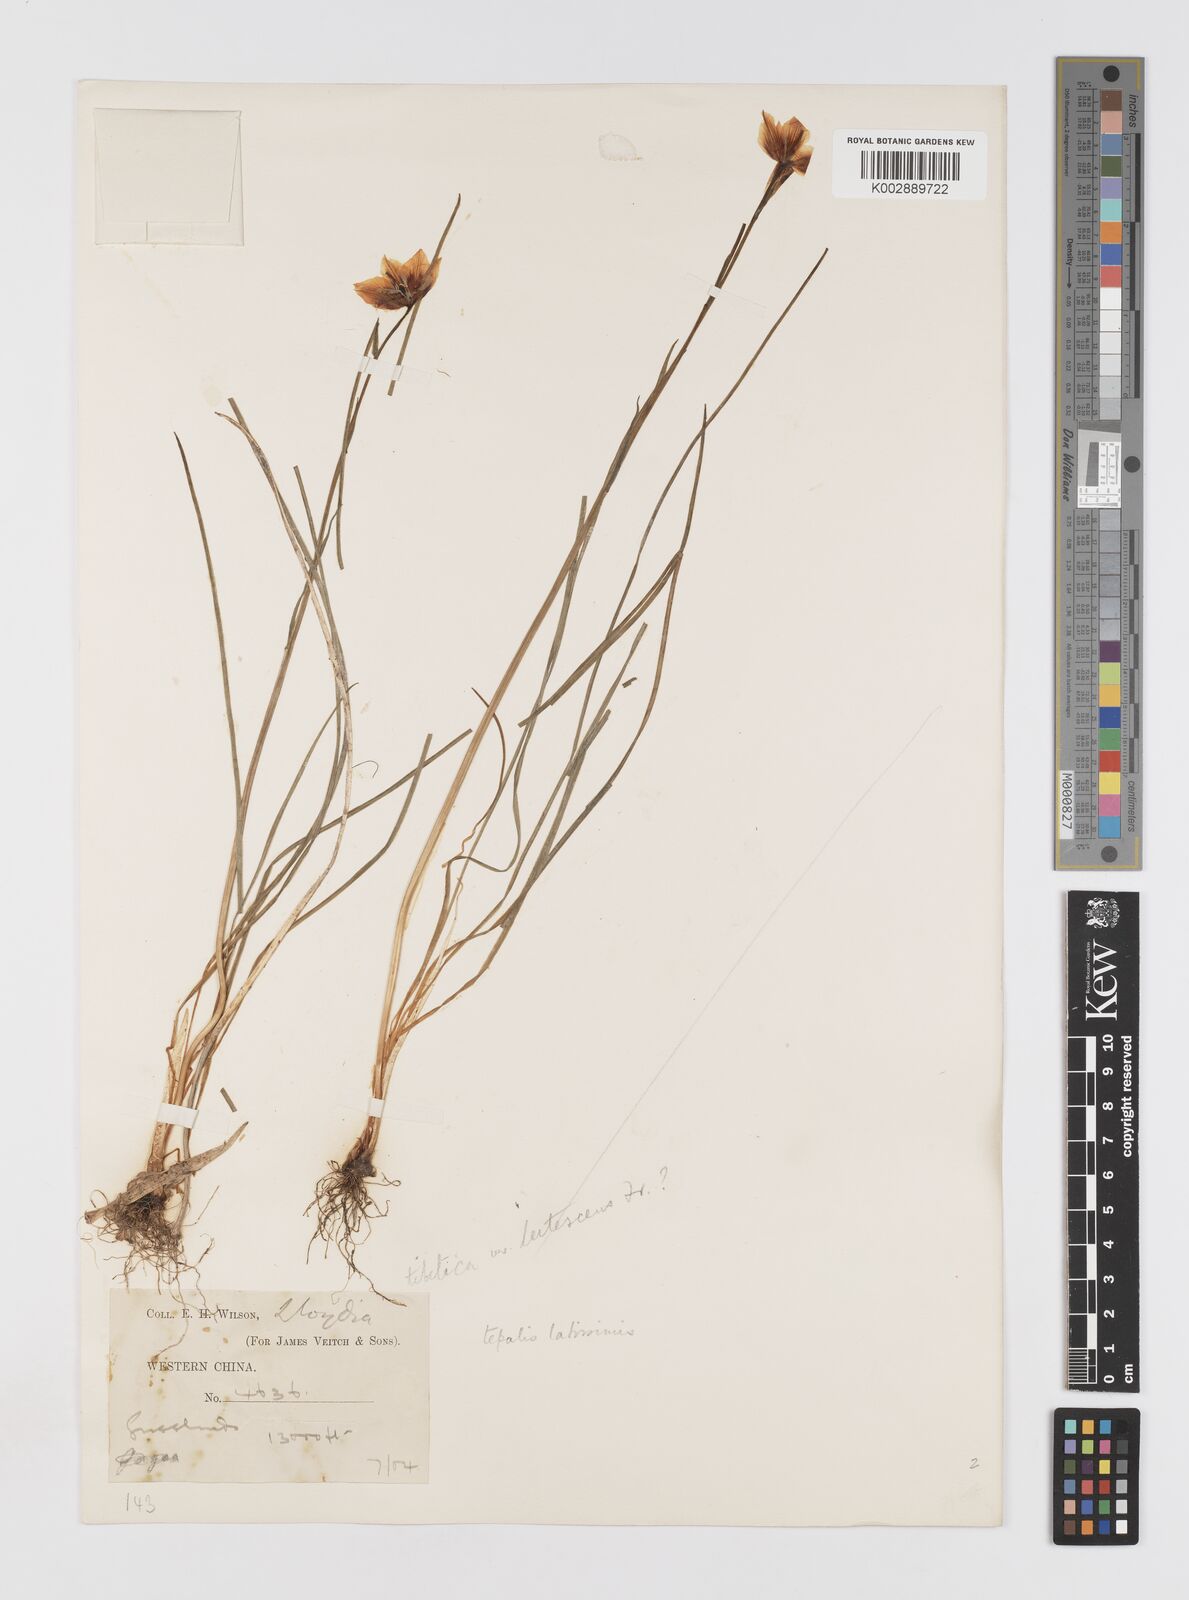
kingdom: Plantae
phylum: Tracheophyta
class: Liliopsida
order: Liliales
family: Liliaceae
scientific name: Liliaceae
